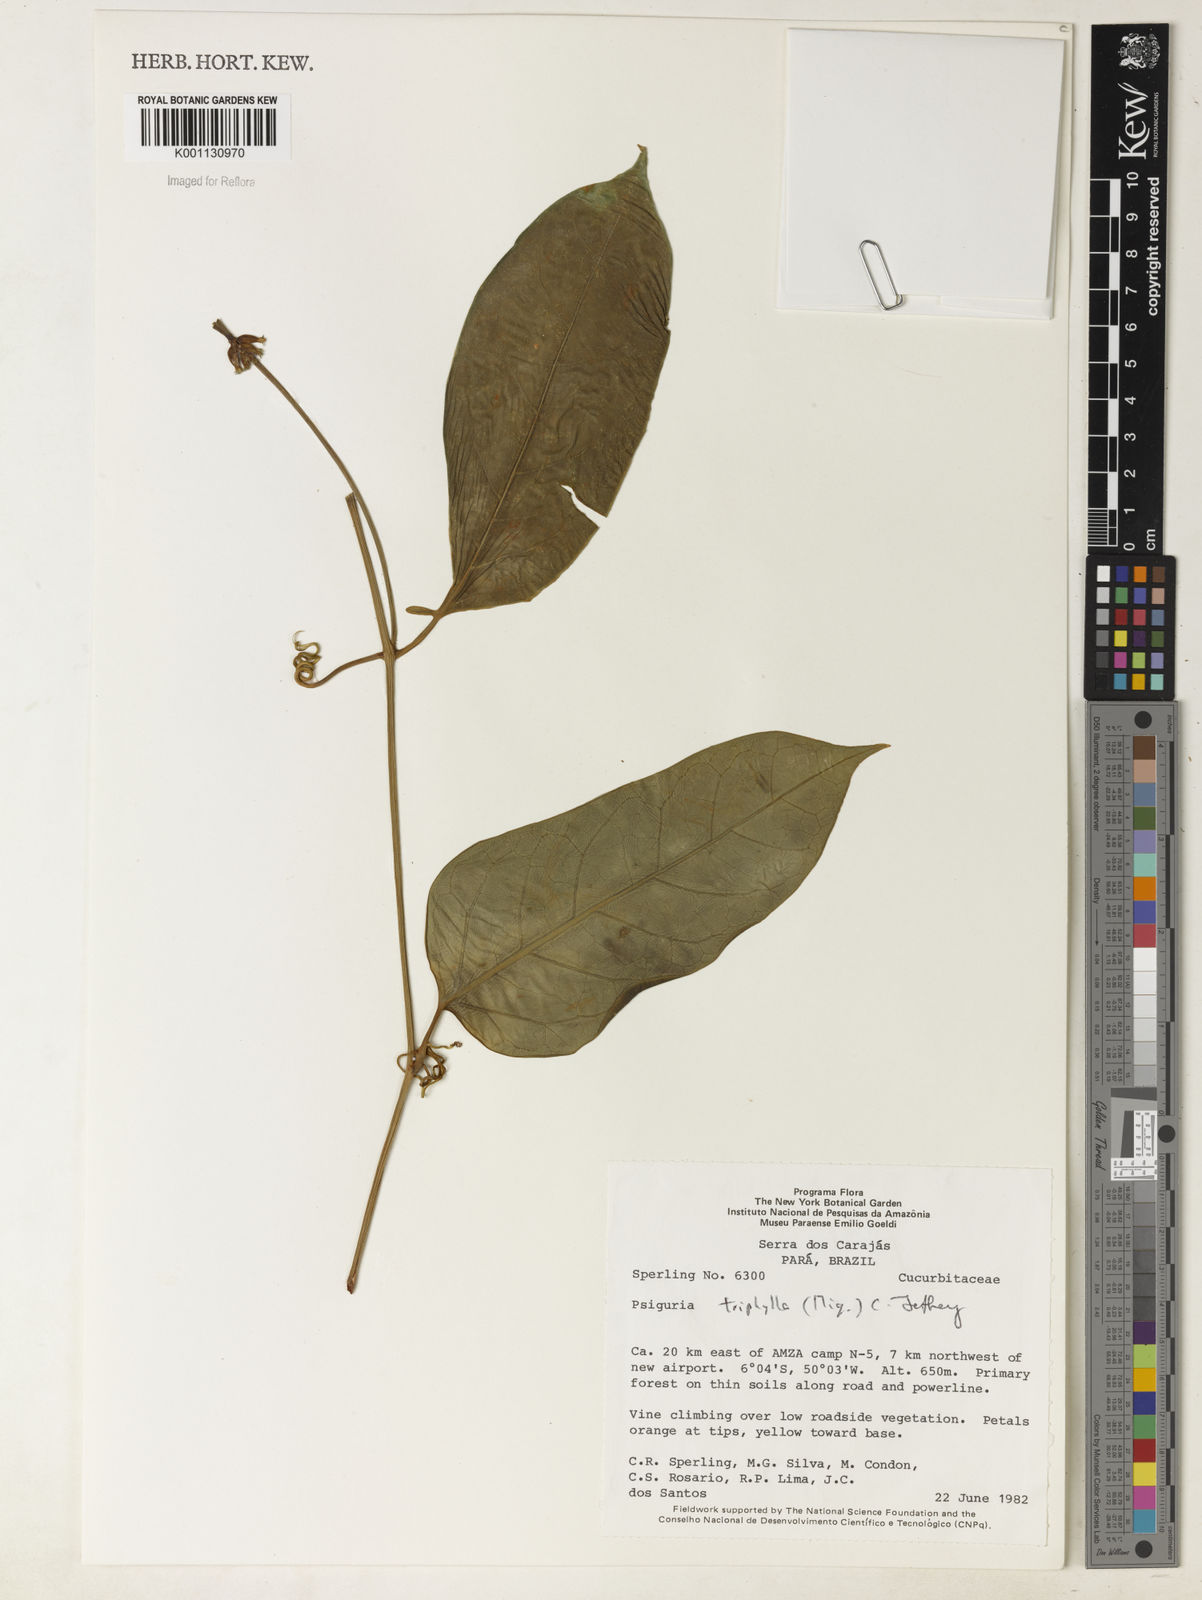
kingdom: Plantae
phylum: Tracheophyta
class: Magnoliopsida
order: Cucurbitales
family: Cucurbitaceae
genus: Psiguria
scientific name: Psiguria triphylla
